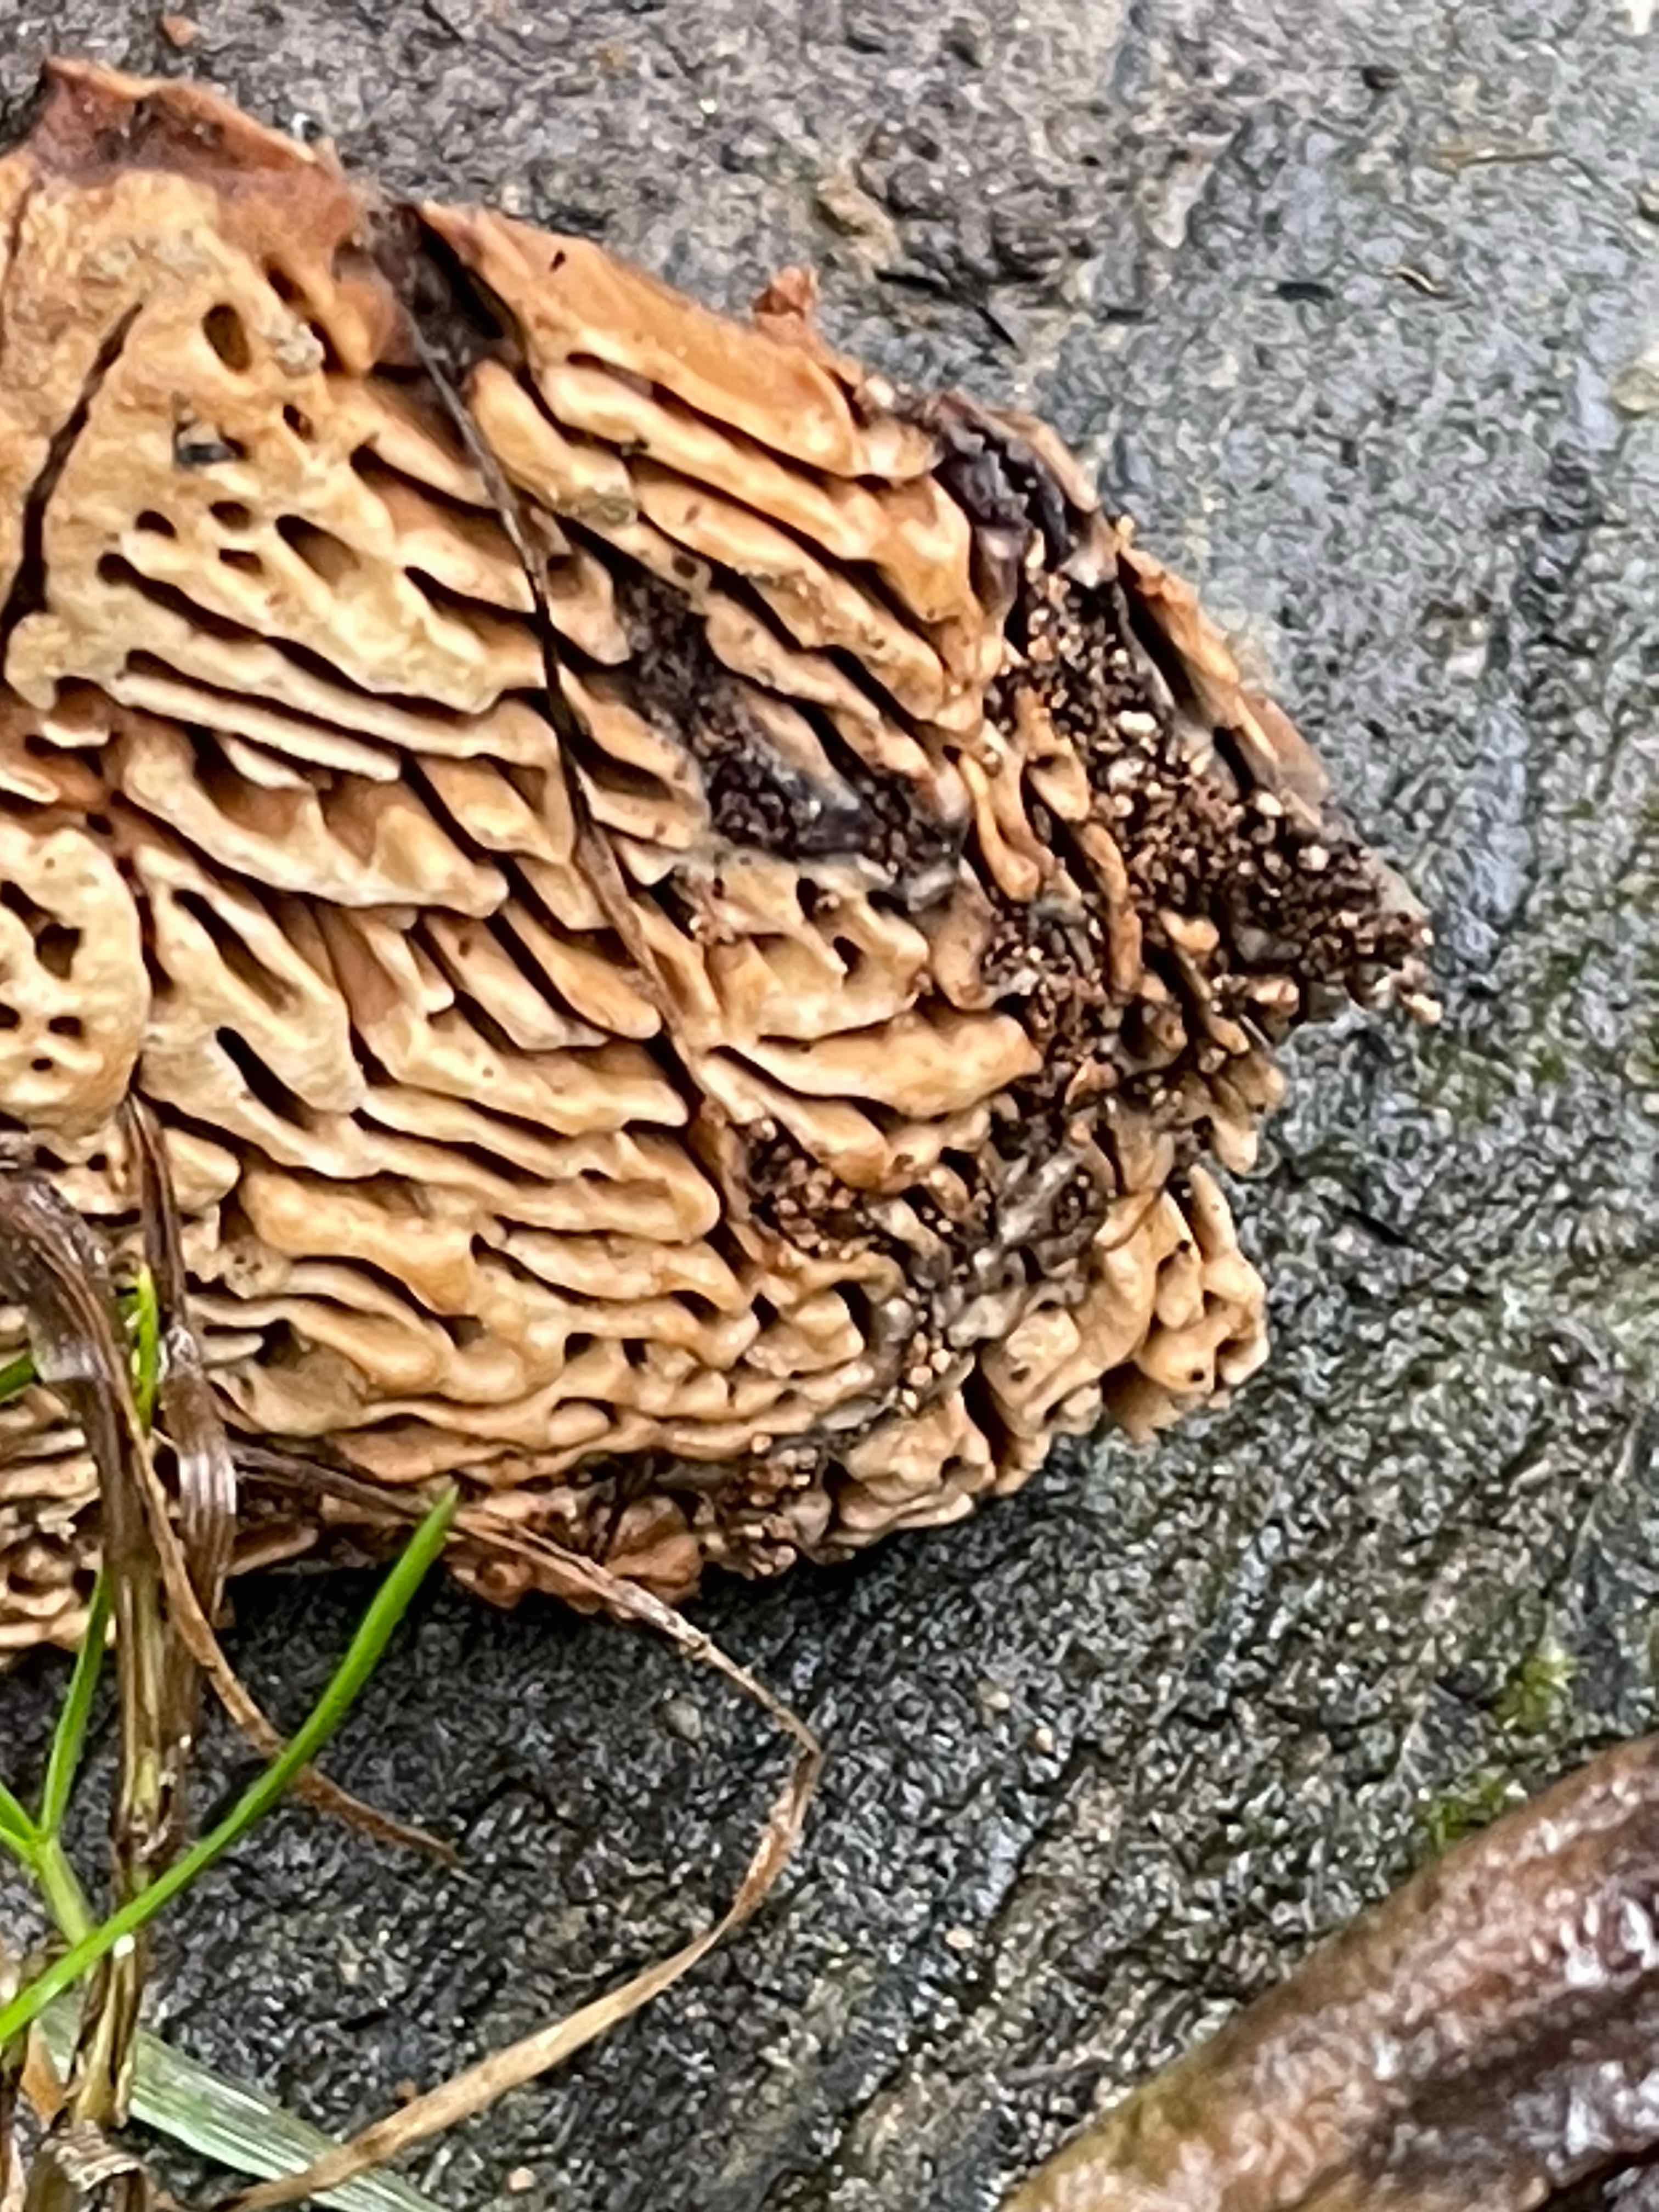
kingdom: Fungi
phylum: Basidiomycota
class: Agaricomycetes
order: Polyporales
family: Fomitopsidaceae
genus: Daedalea
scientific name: Daedalea quercina
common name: ege-labyrintsvamp
